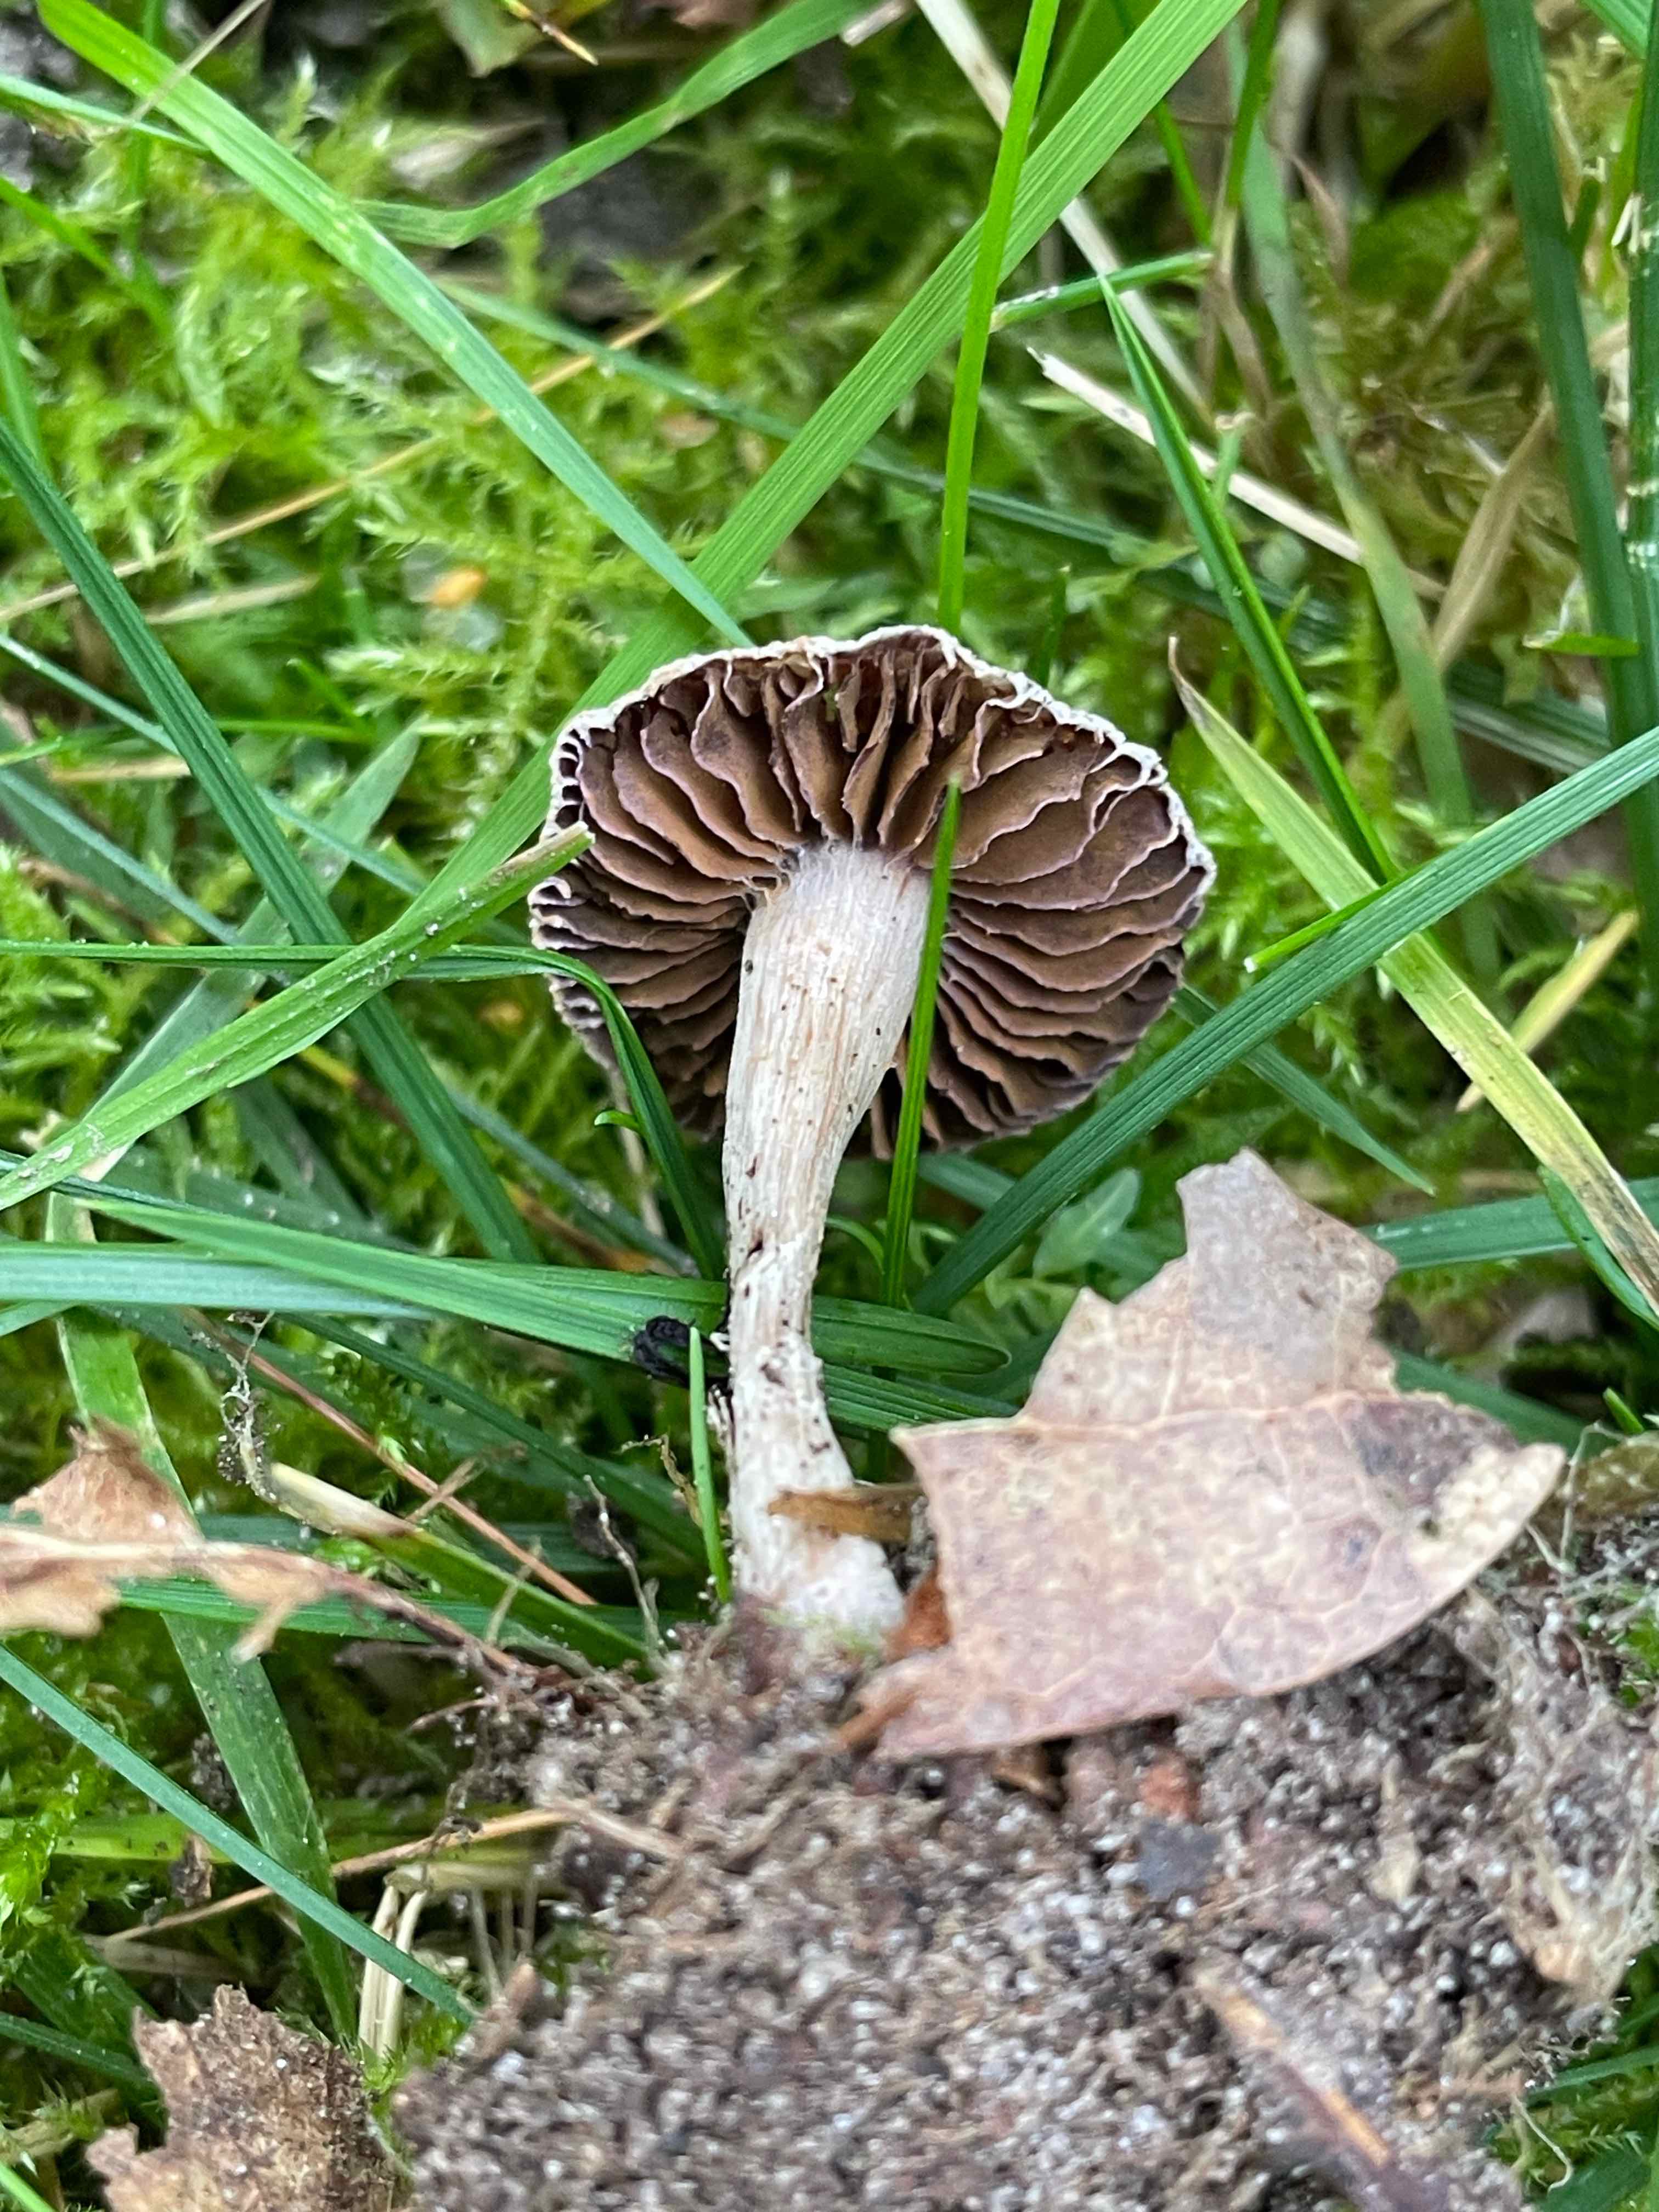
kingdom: Fungi
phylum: Basidiomycota
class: Agaricomycetes
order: Agaricales
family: Cortinariaceae
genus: Cortinarius
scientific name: Cortinarius
